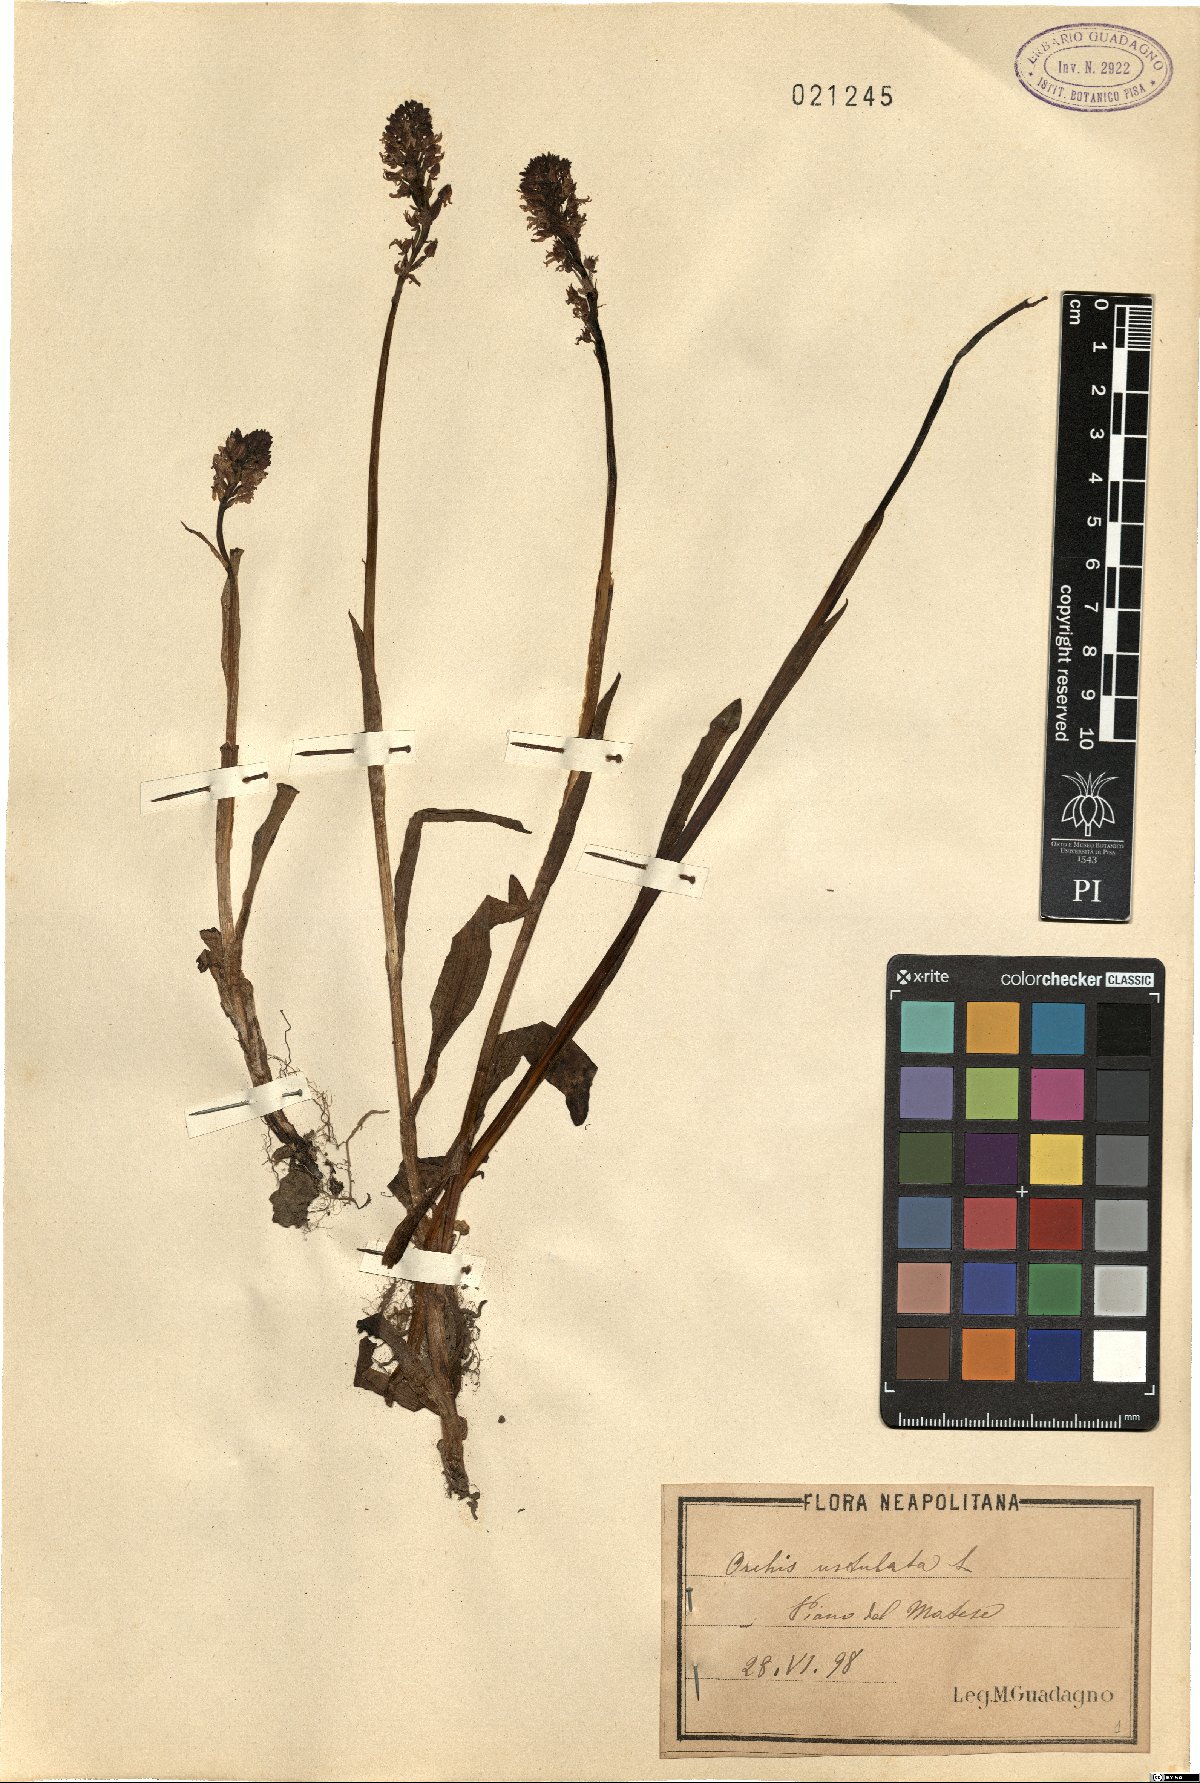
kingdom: Plantae
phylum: Tracheophyta
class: Liliopsida
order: Asparagales
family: Orchidaceae
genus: Neotinea
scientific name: Neotinea ustulata
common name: Burnt orchid
